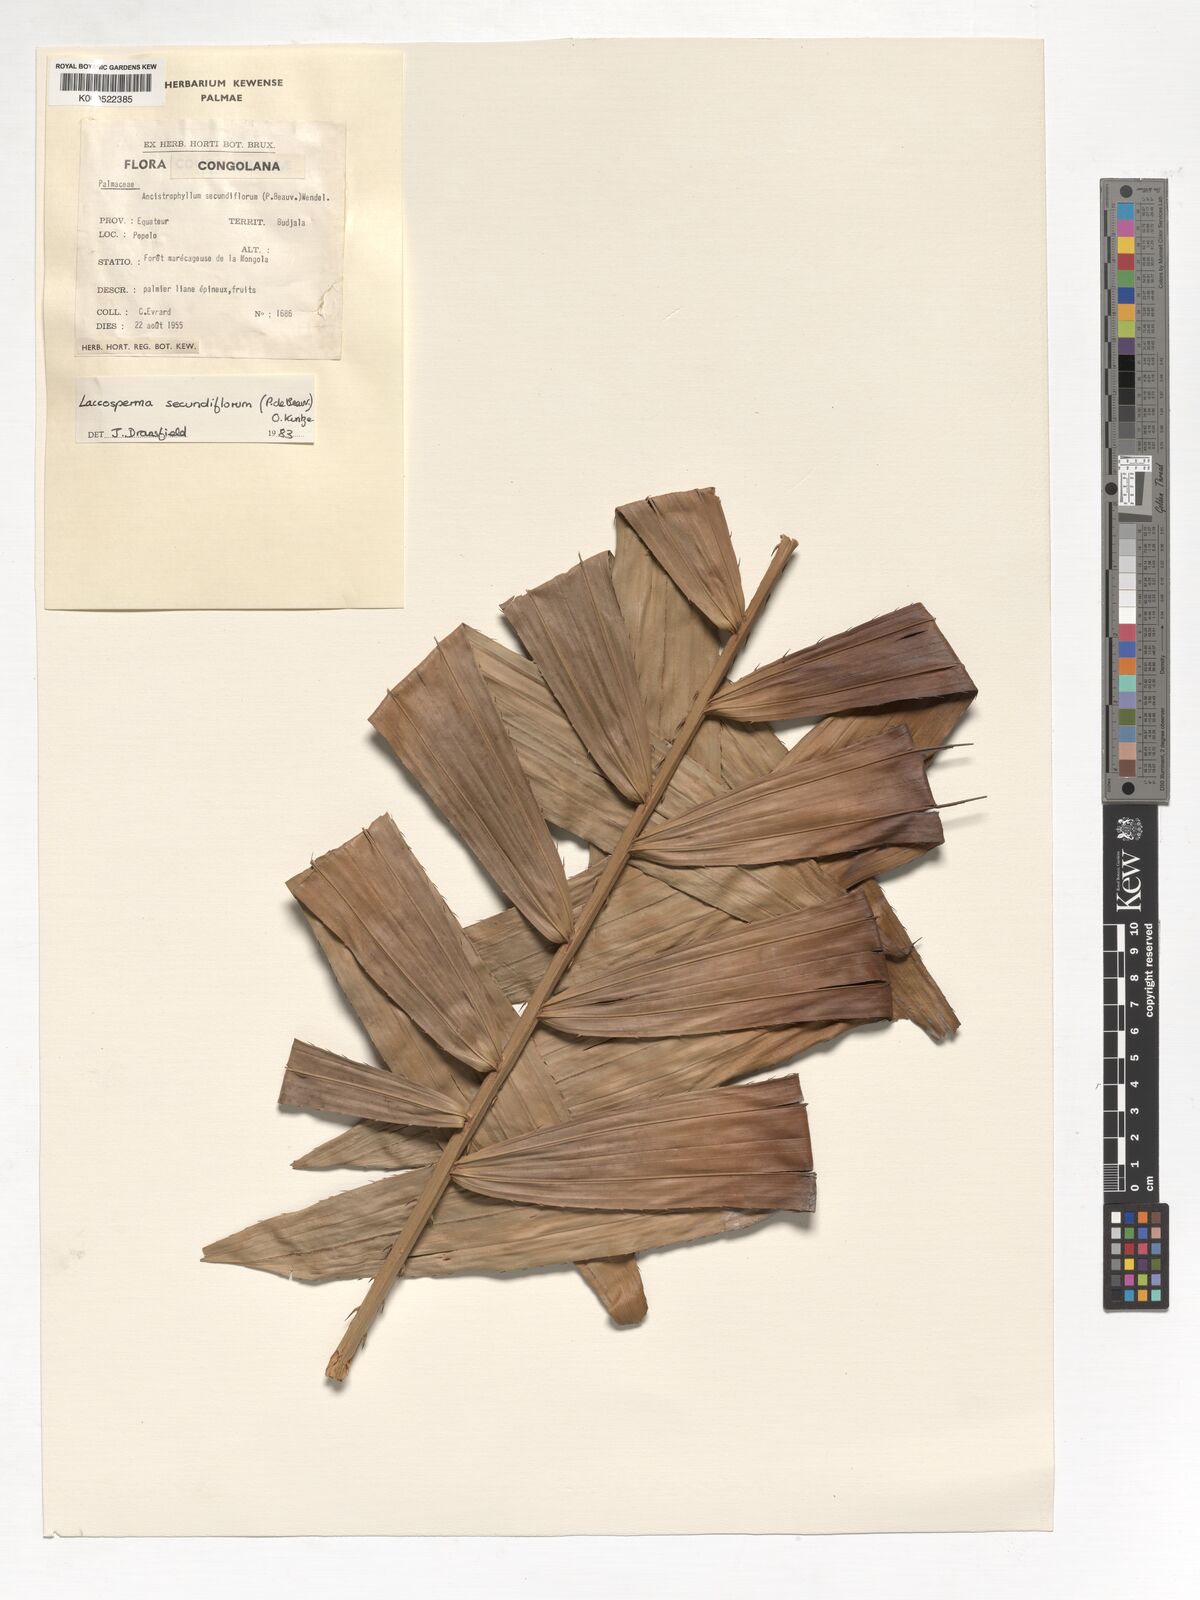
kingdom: Plantae
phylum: Tracheophyta
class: Liliopsida
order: Arecales
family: Arecaceae
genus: Laccosperma
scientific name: Laccosperma secundiflorum
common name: Rattan
